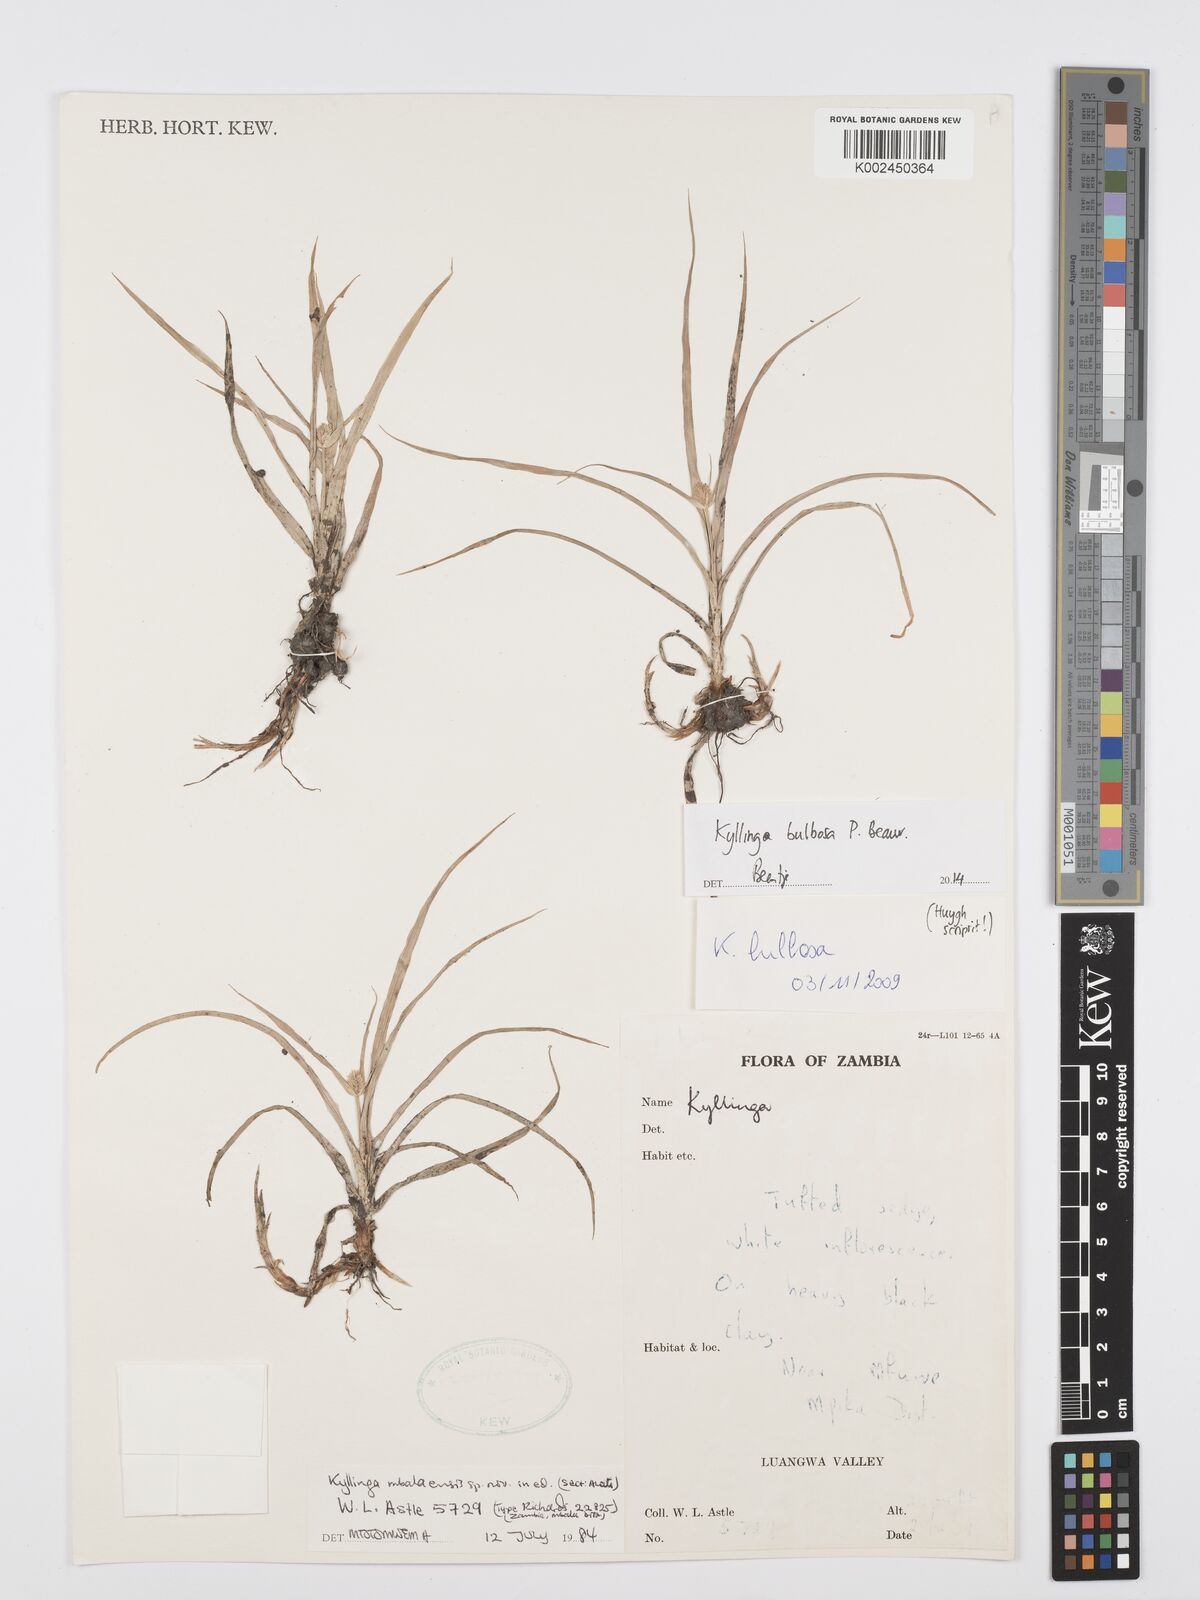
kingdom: Plantae
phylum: Tracheophyta
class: Liliopsida
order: Poales
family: Cyperaceae
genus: Cyperus
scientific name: Cyperus
